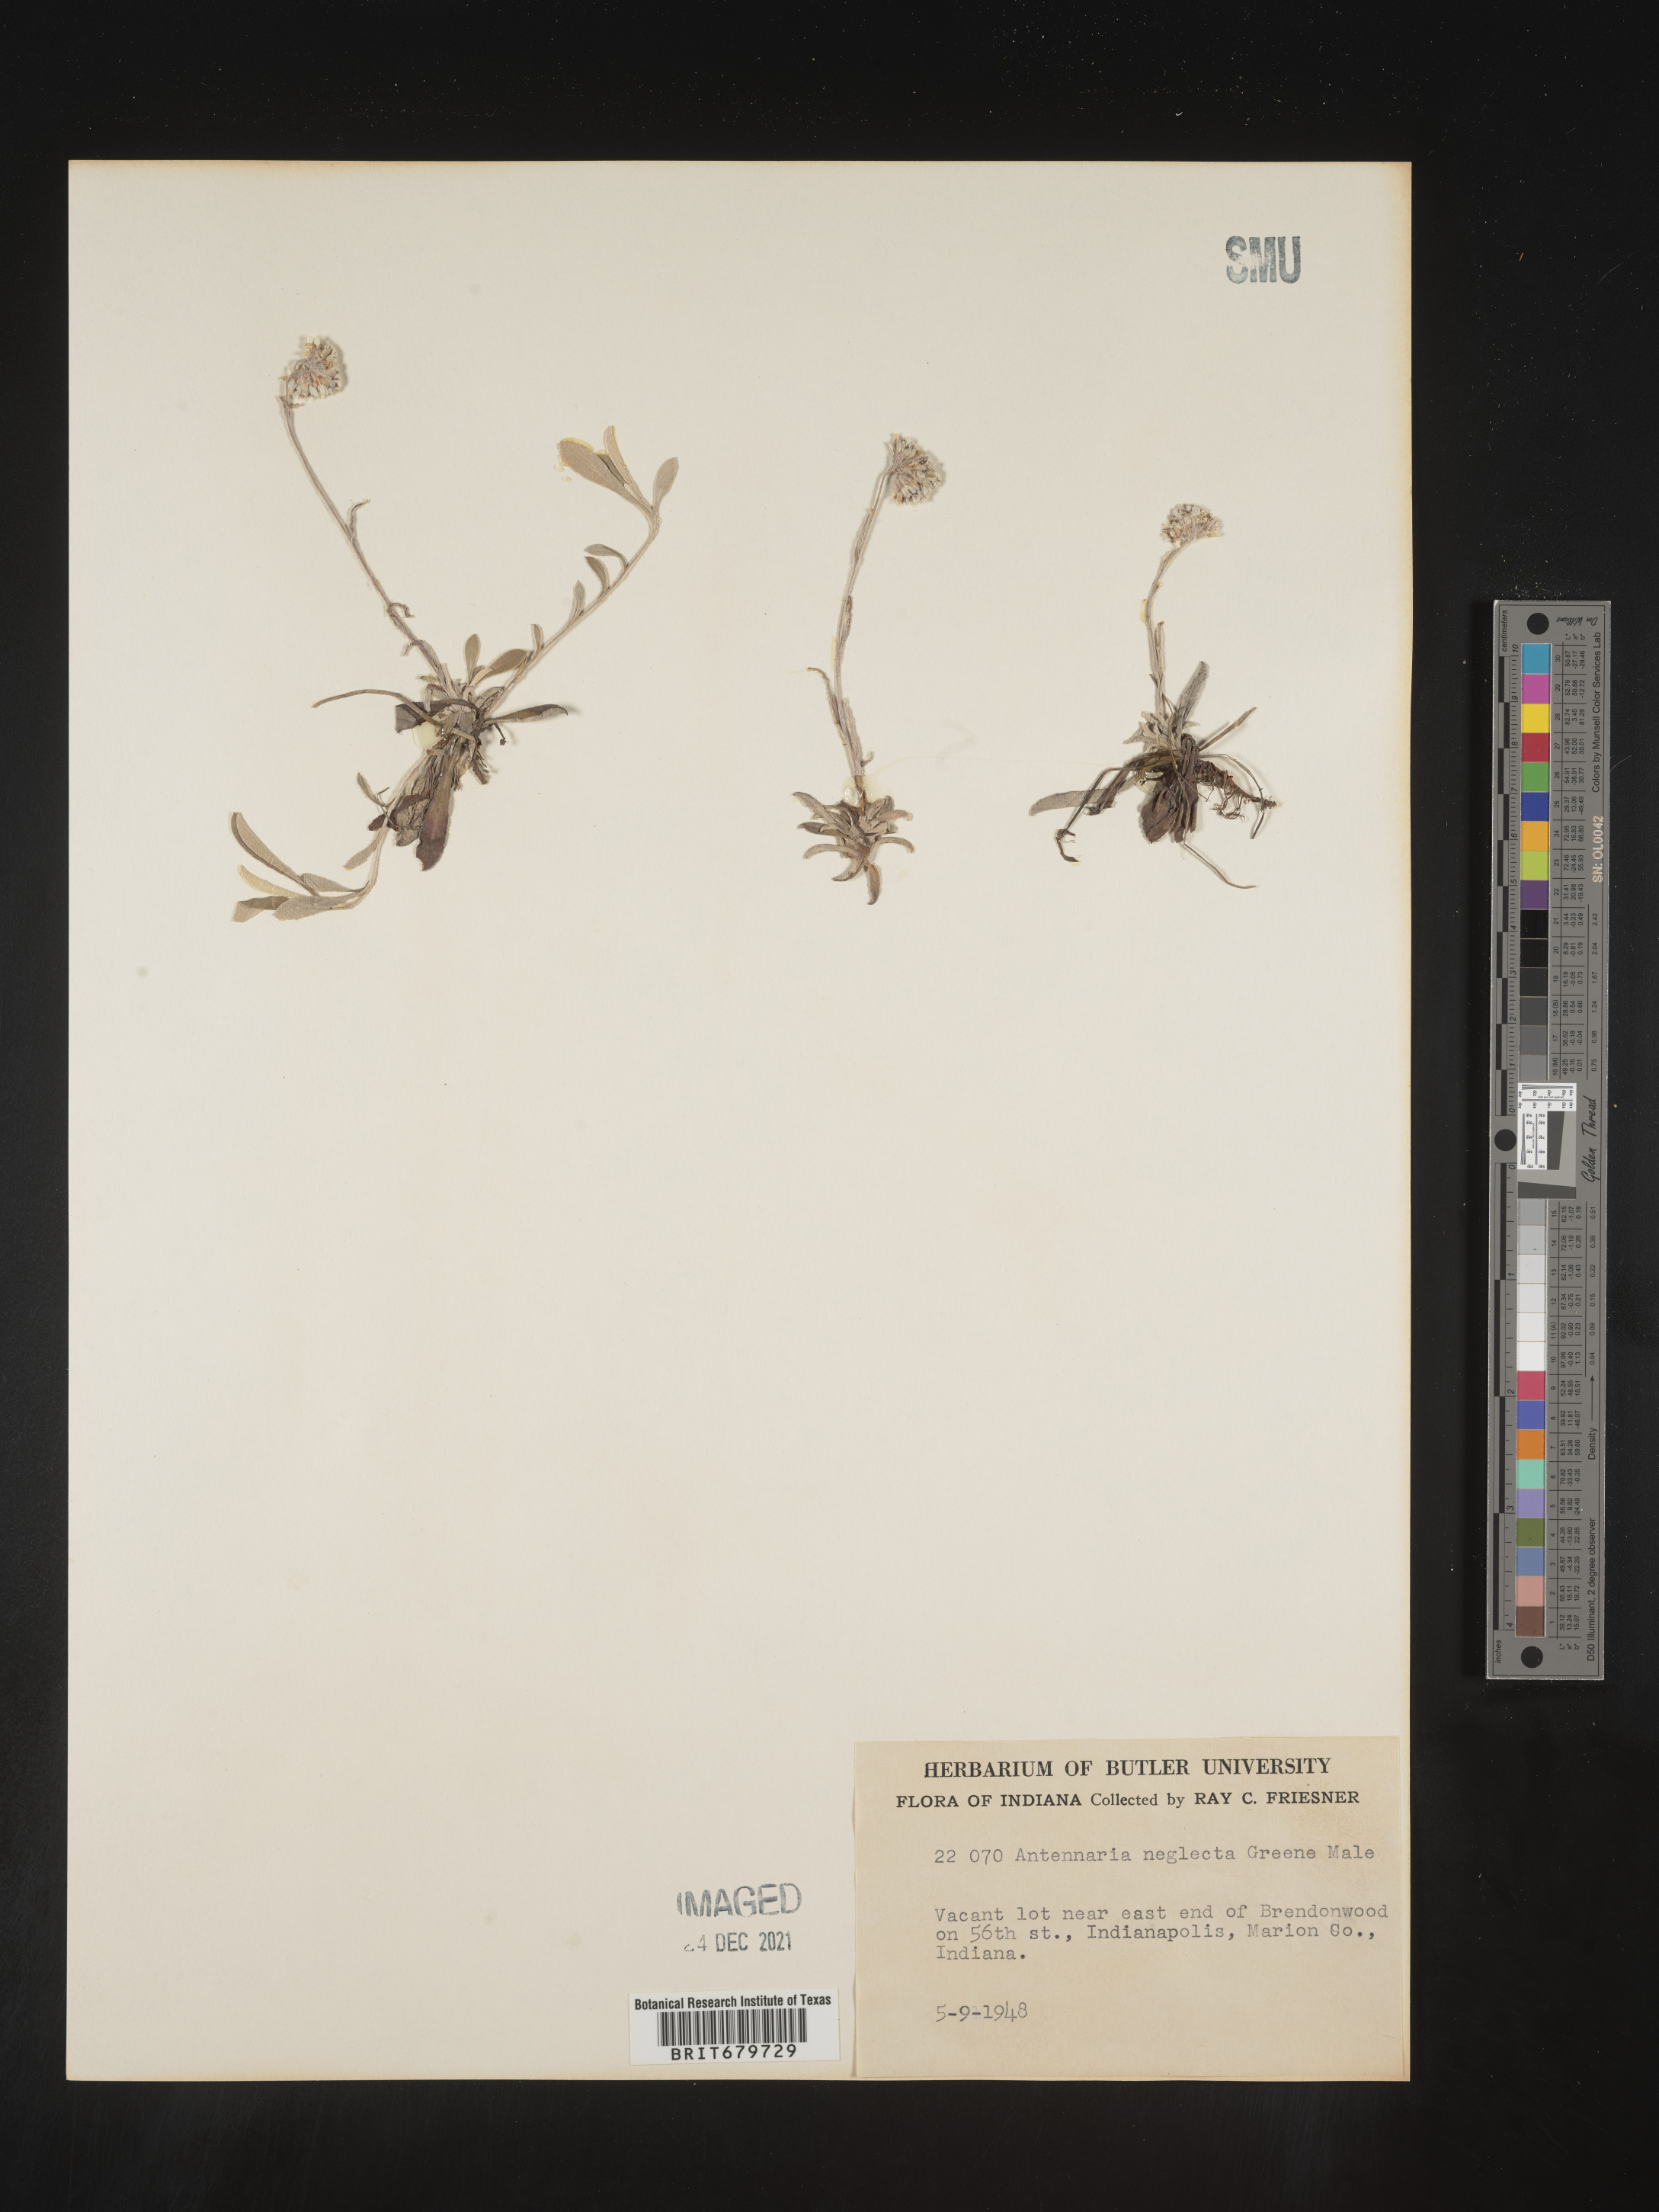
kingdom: Plantae
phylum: Tracheophyta
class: Magnoliopsida
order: Asterales
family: Asteraceae
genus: Antennaria
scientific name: Antennaria neglecta
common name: Field pussytoes
